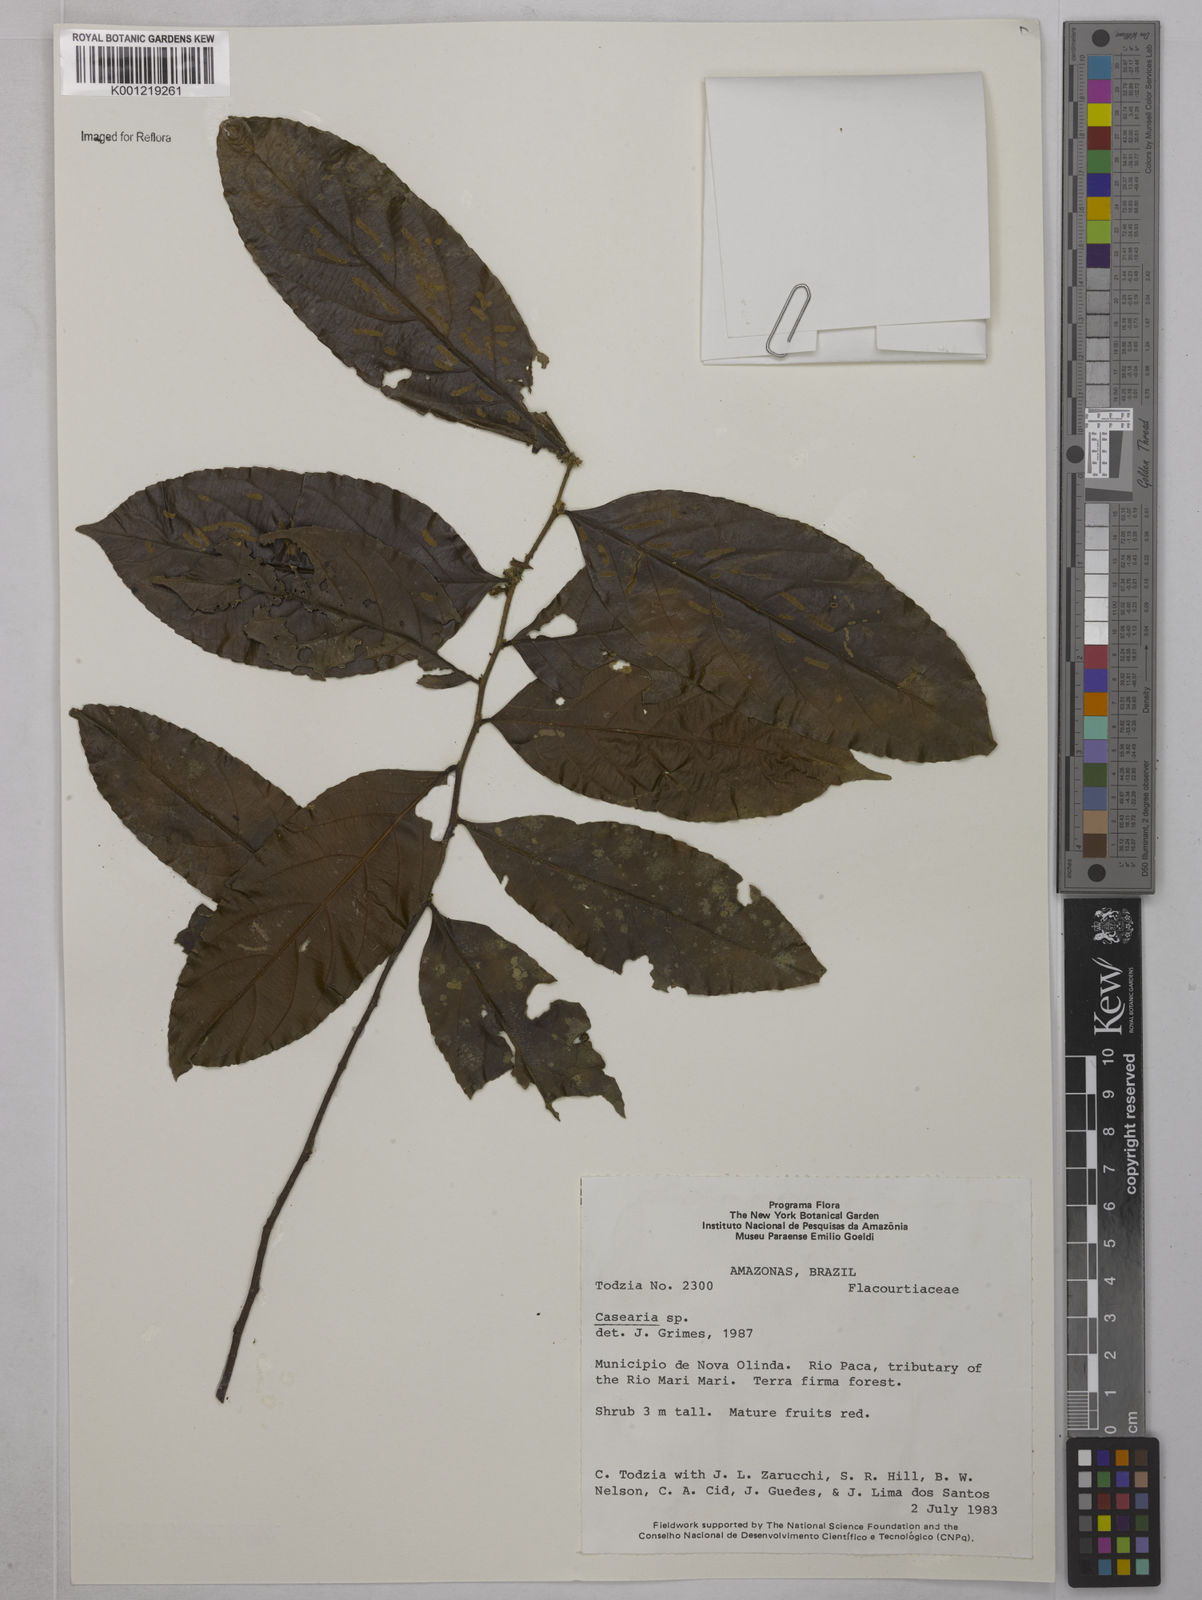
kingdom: Plantae
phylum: Tracheophyta
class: Magnoliopsida
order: Malpighiales
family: Salicaceae
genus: Casearia
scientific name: Casearia
